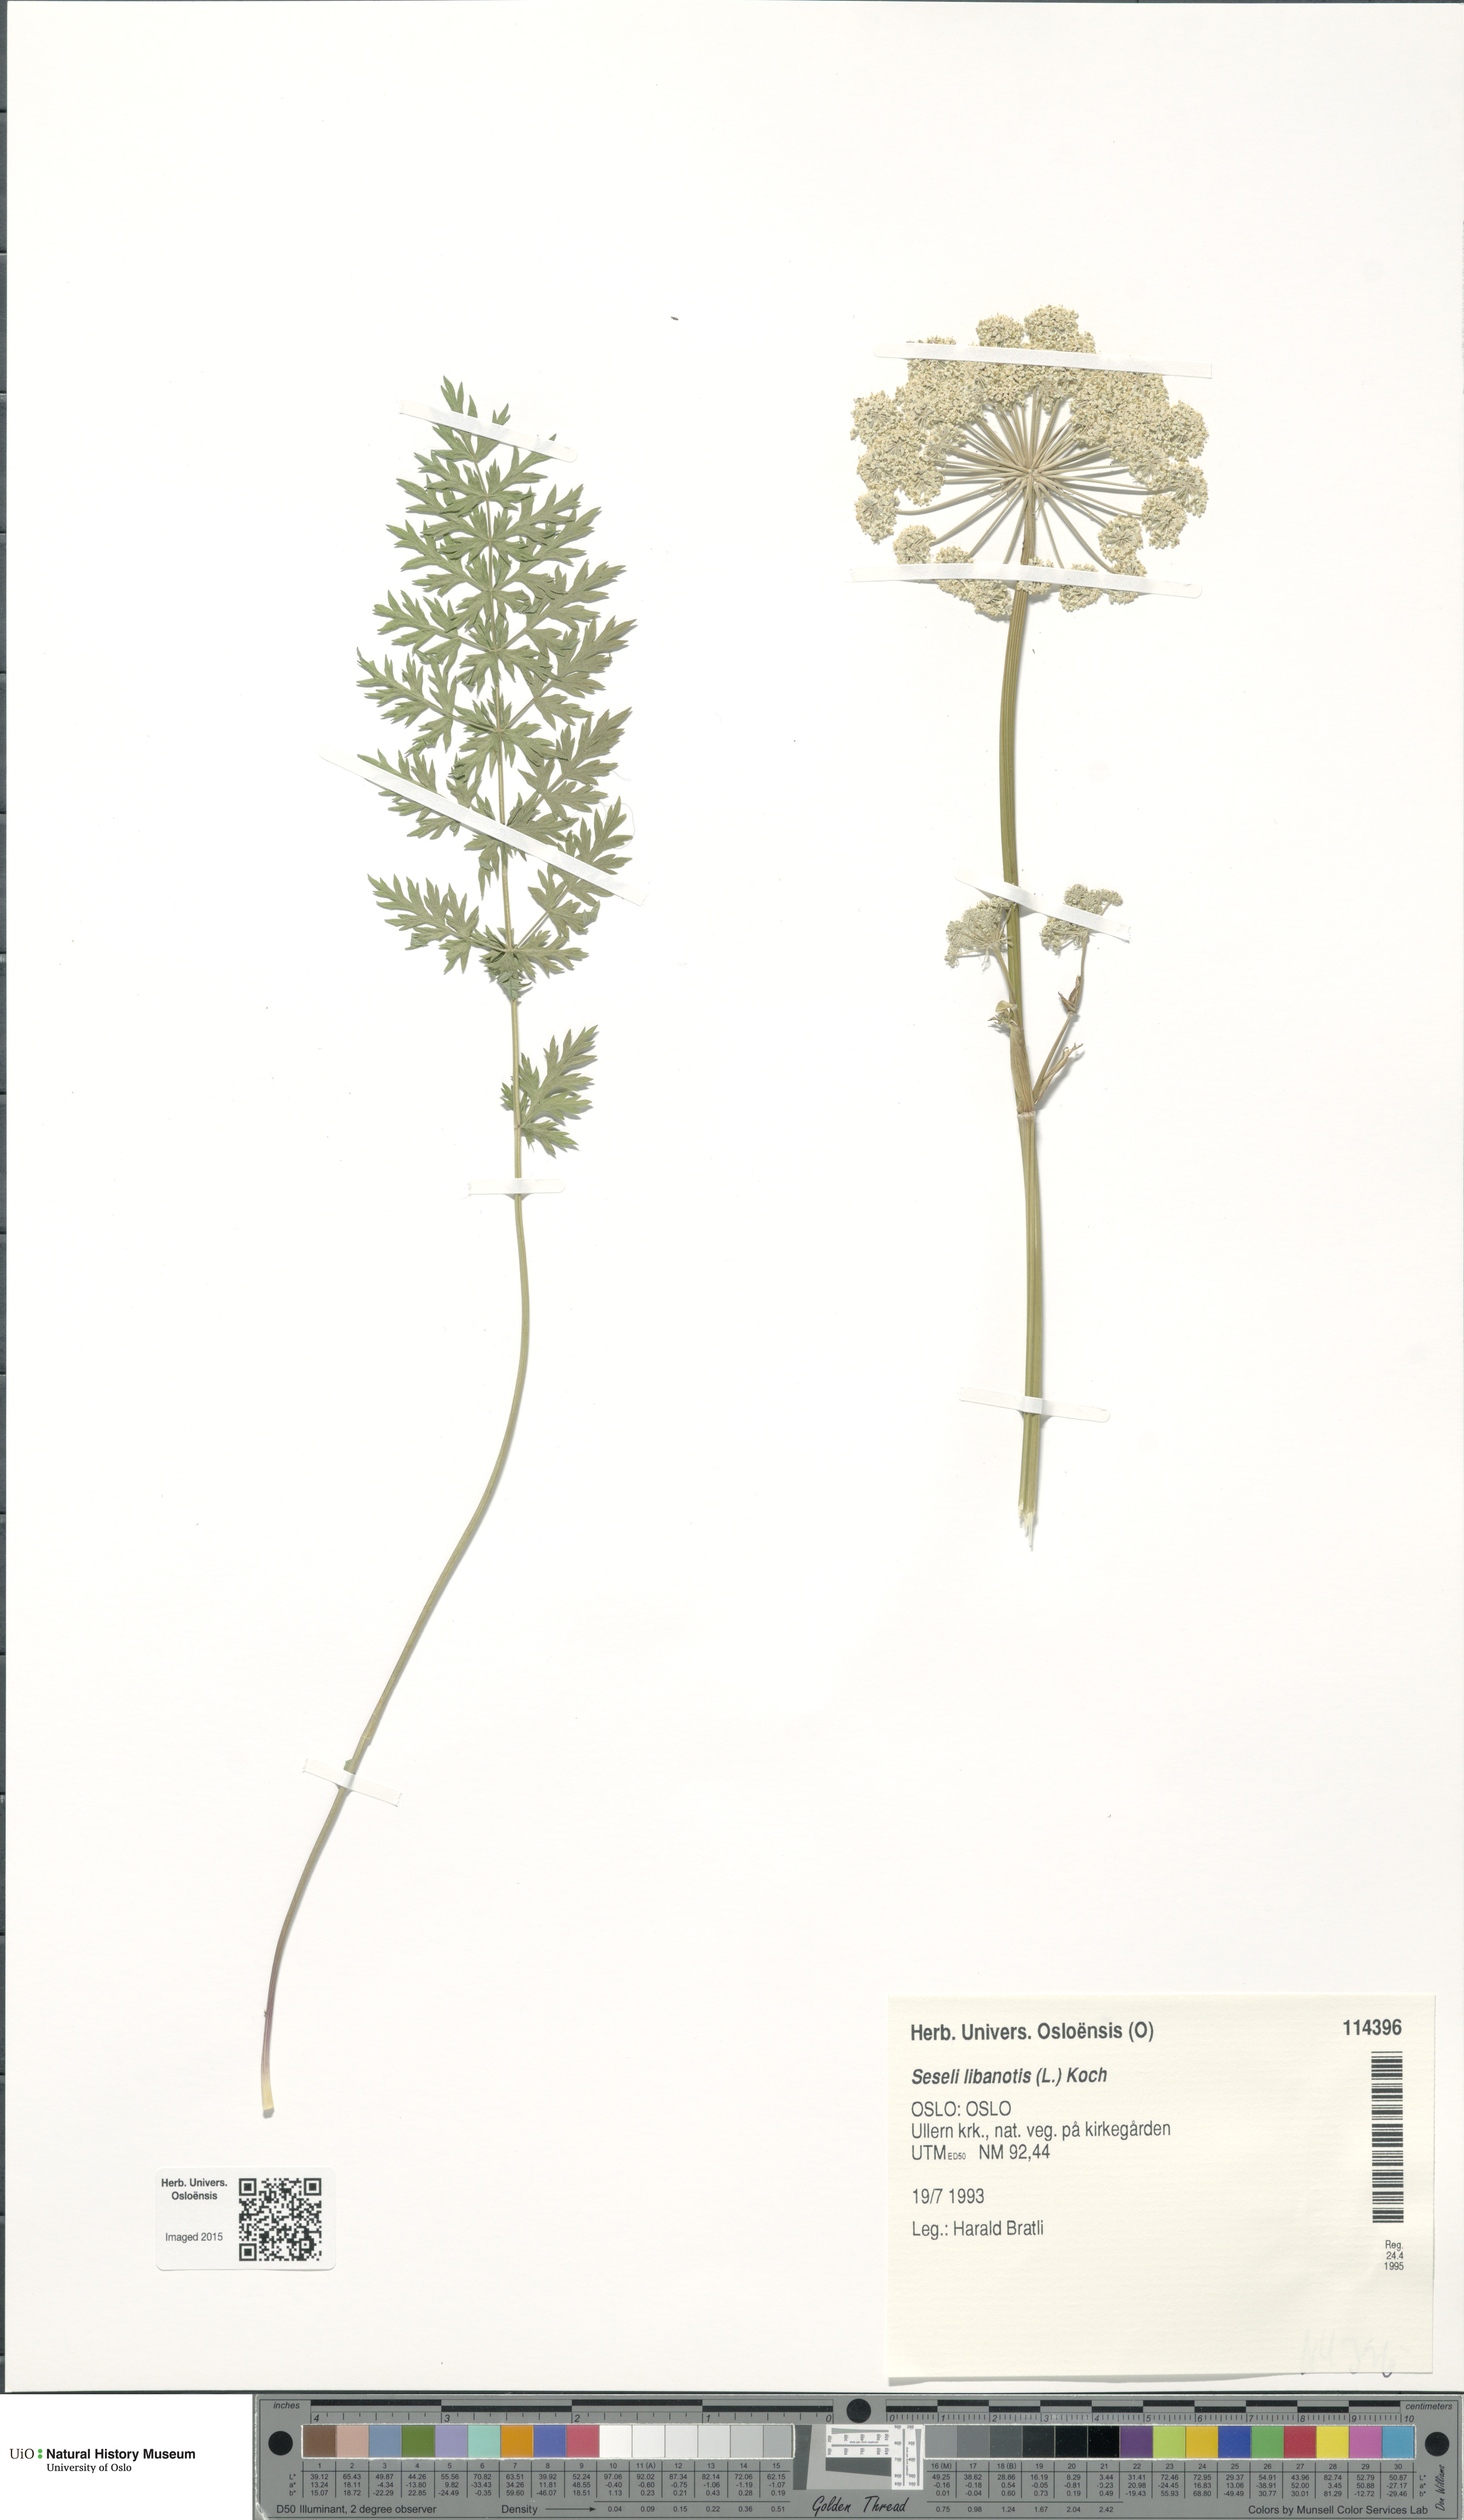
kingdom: Plantae
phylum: Tracheophyta
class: Magnoliopsida
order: Apiales
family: Apiaceae
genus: Seseli
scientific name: Seseli libanotis
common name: Mooncarrot
